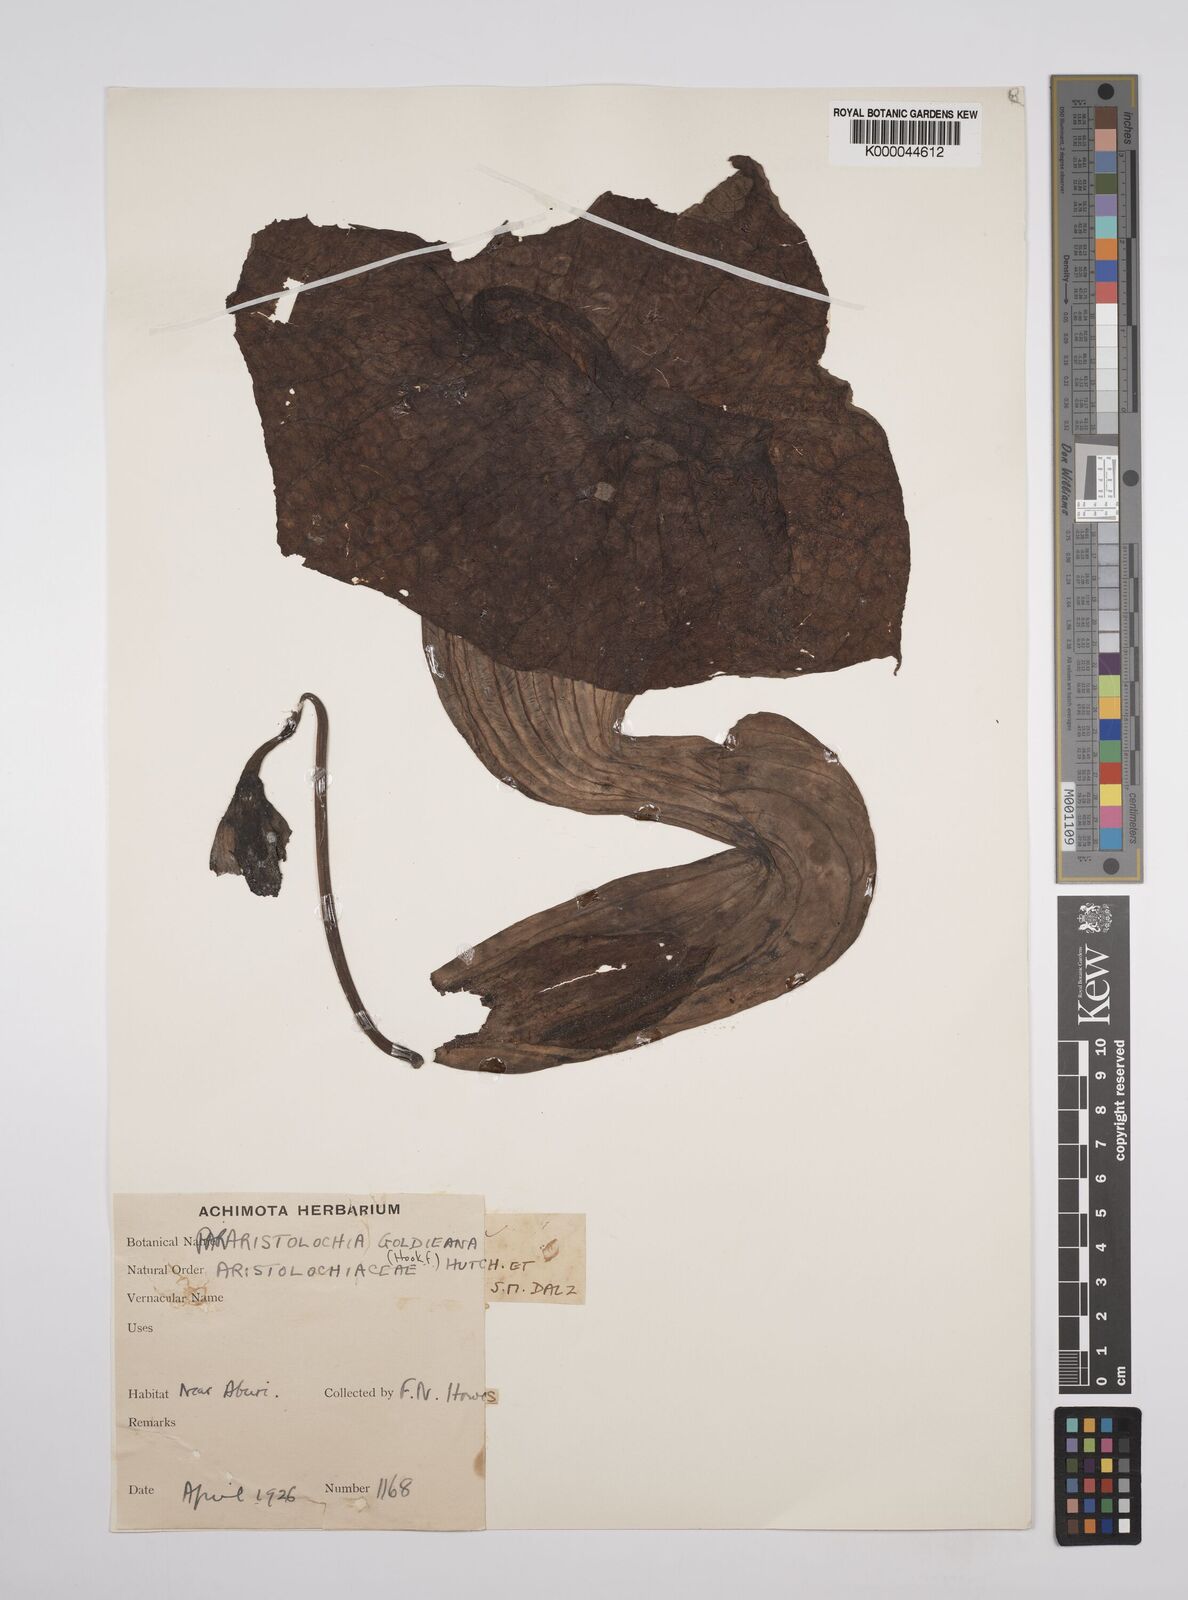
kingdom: Plantae
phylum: Tracheophyta
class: Magnoliopsida
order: Piperales
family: Aristolochiaceae
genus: Aristolochia
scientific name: Aristolochia goldieana
